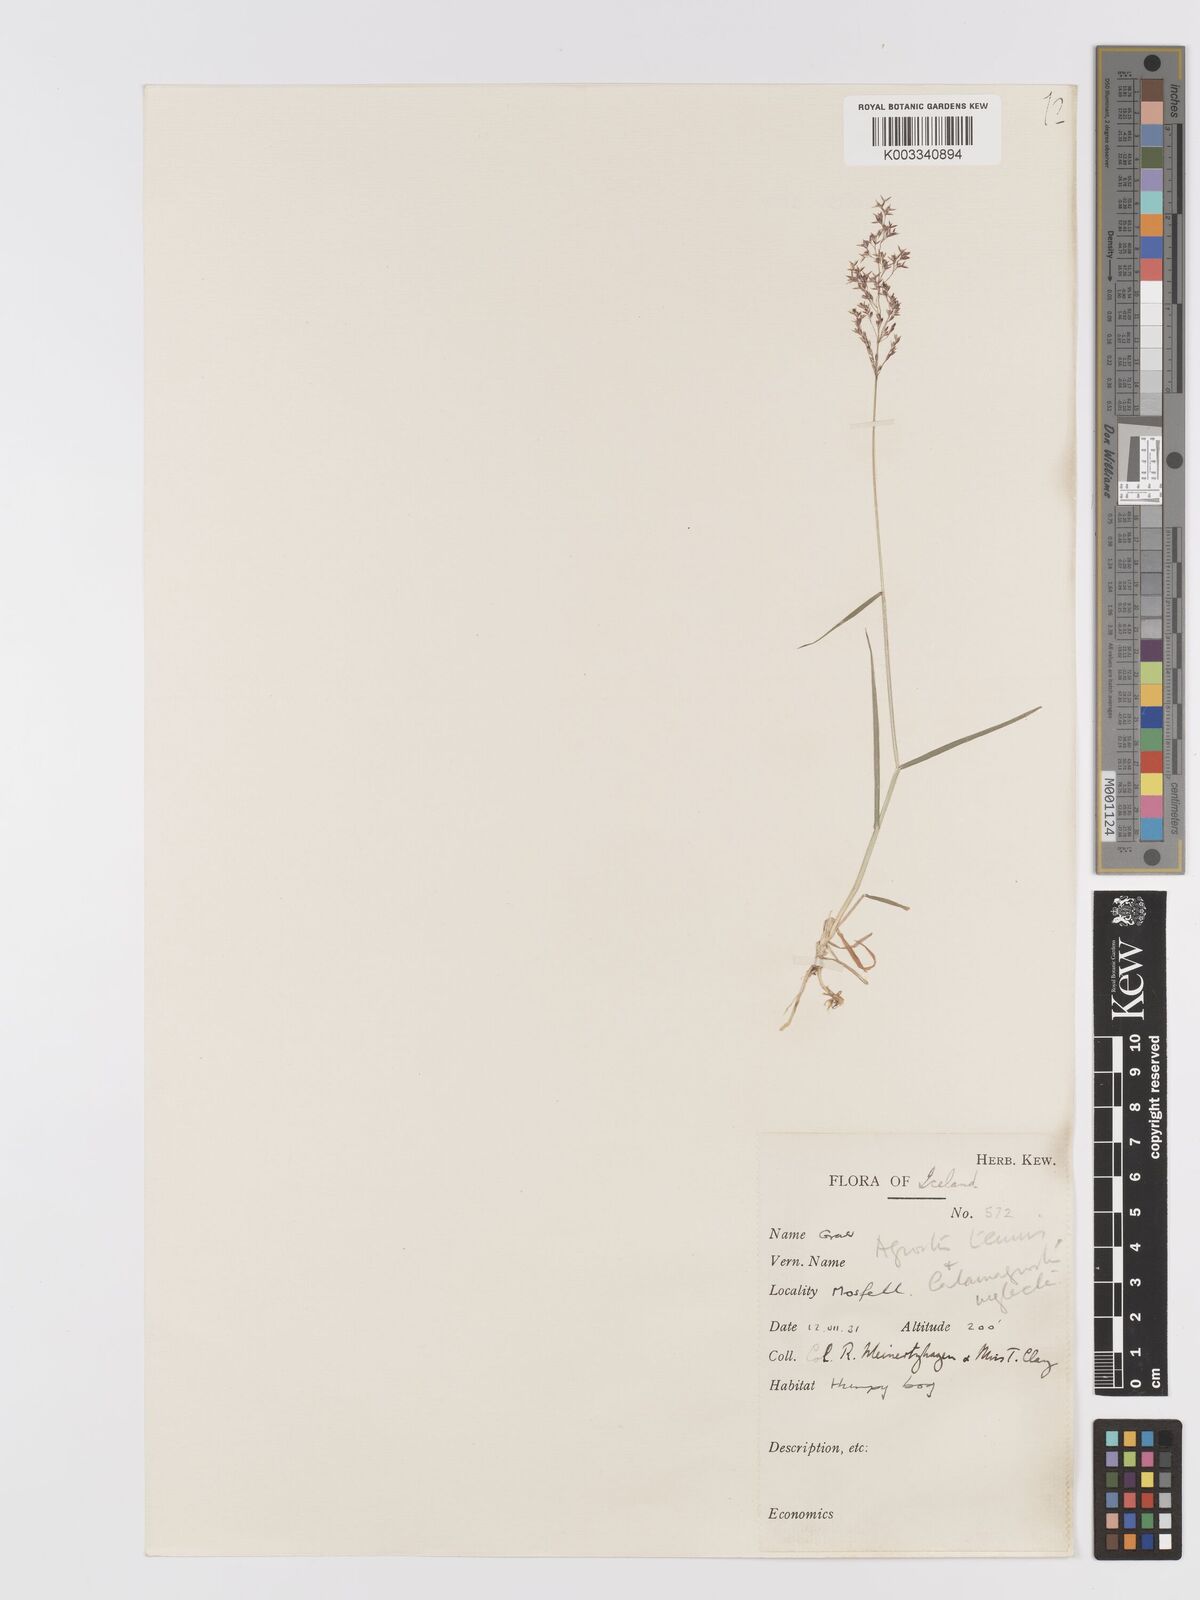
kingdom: Plantae
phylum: Tracheophyta
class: Liliopsida
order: Poales
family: Poaceae
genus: Agrostis
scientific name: Agrostis capillaris
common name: Colonial bentgrass
